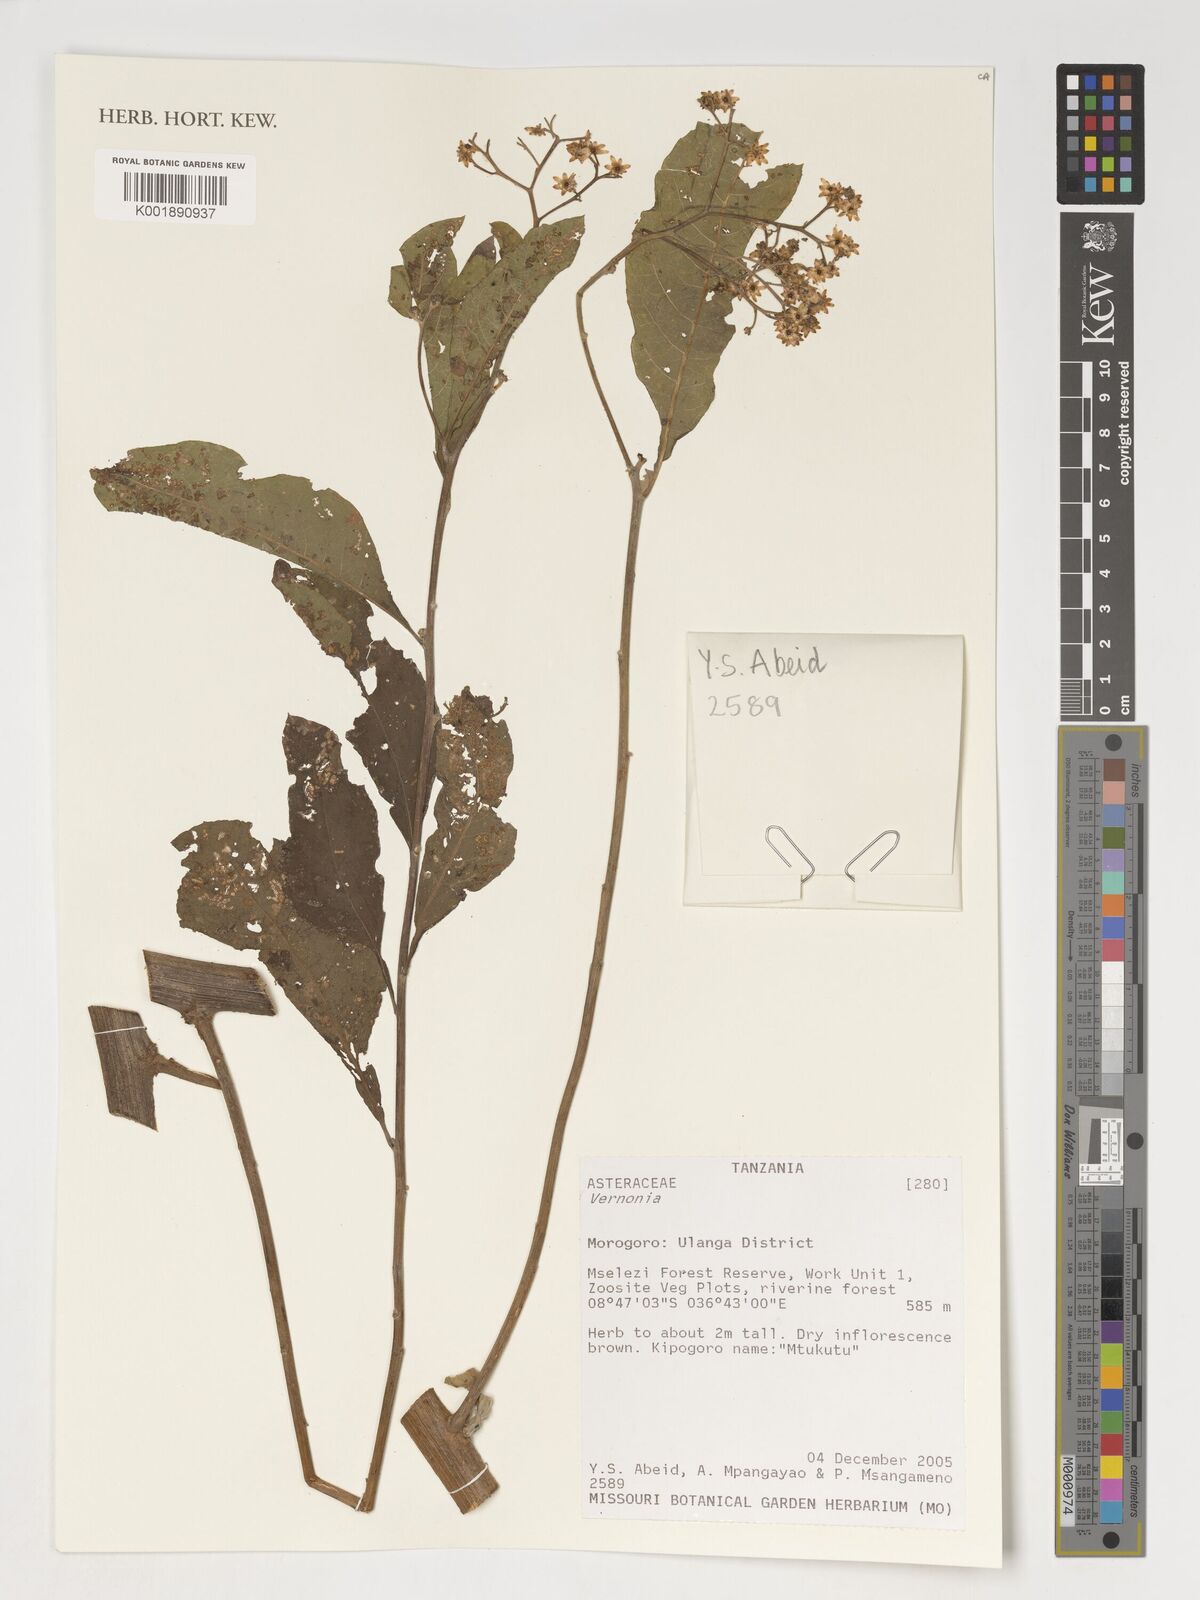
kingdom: Plantae
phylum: Tracheophyta
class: Magnoliopsida
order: Asterales
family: Asteraceae
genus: Vernonia
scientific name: Vernonia
